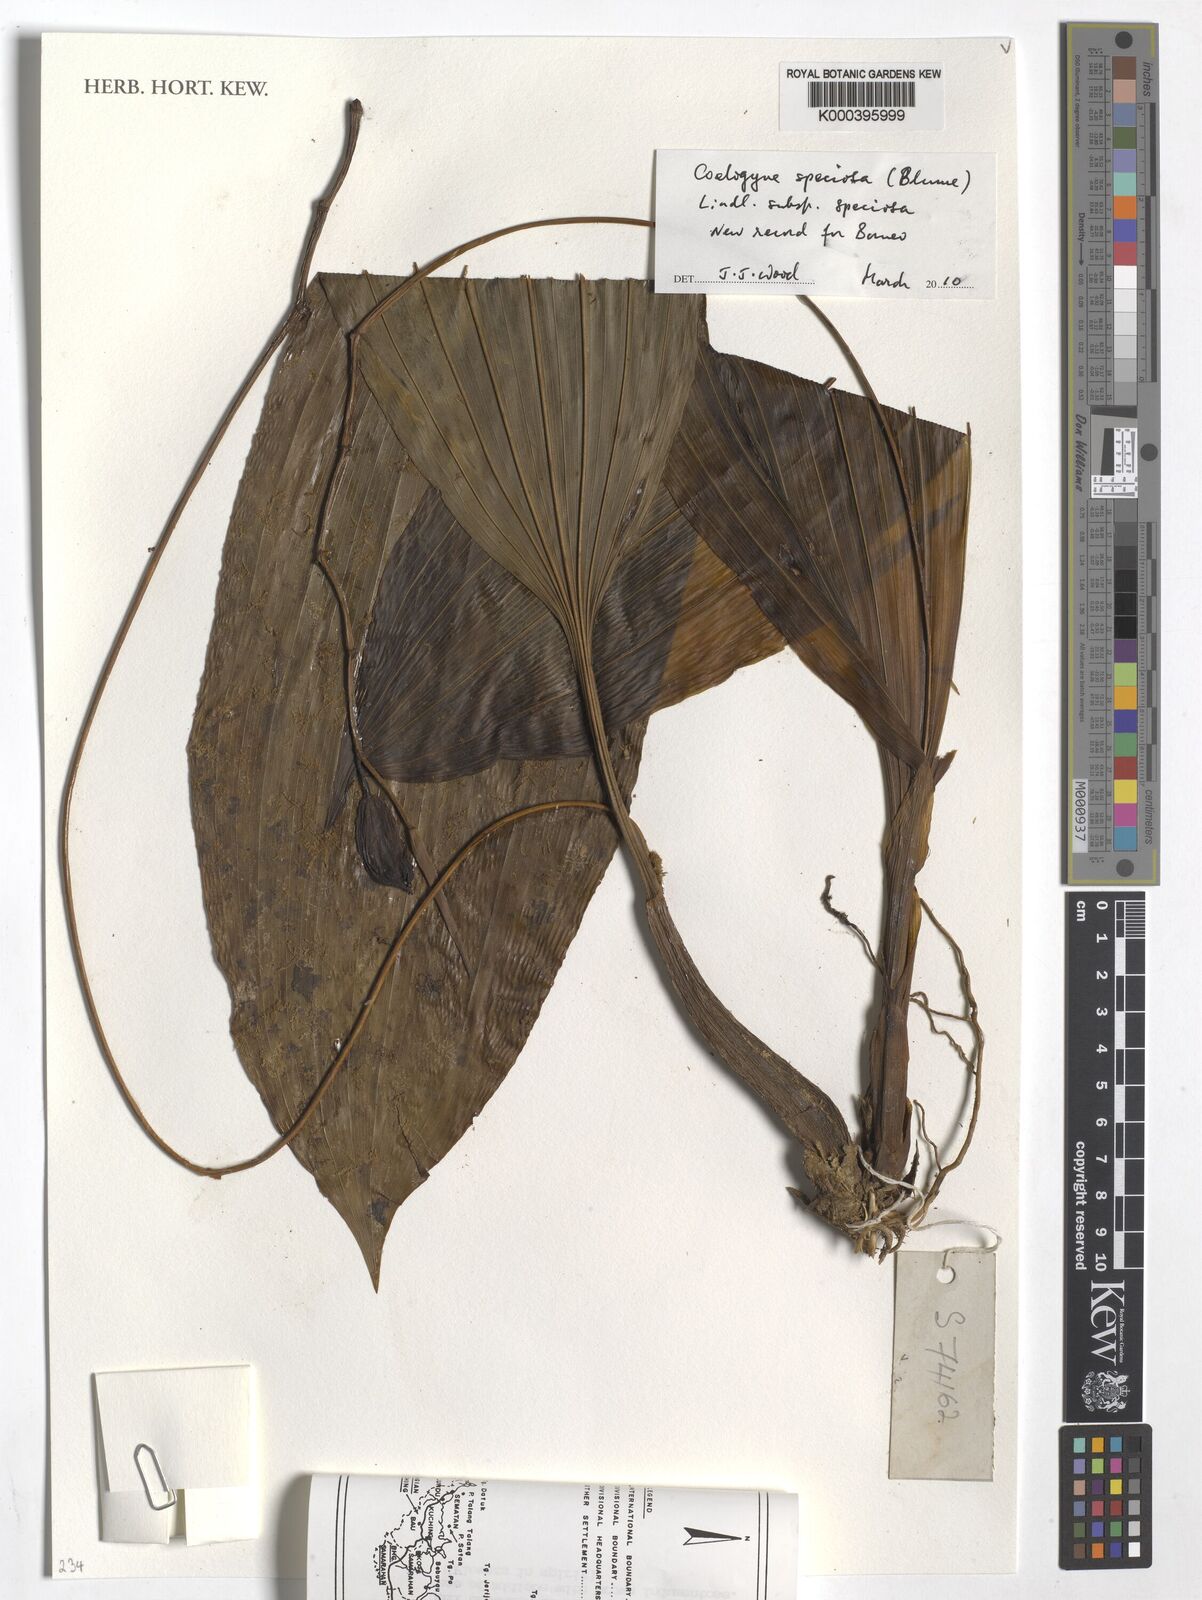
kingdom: Plantae
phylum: Tracheophyta
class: Liliopsida
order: Asparagales
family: Orchidaceae
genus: Coelogyne
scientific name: Coelogyne speciosa
